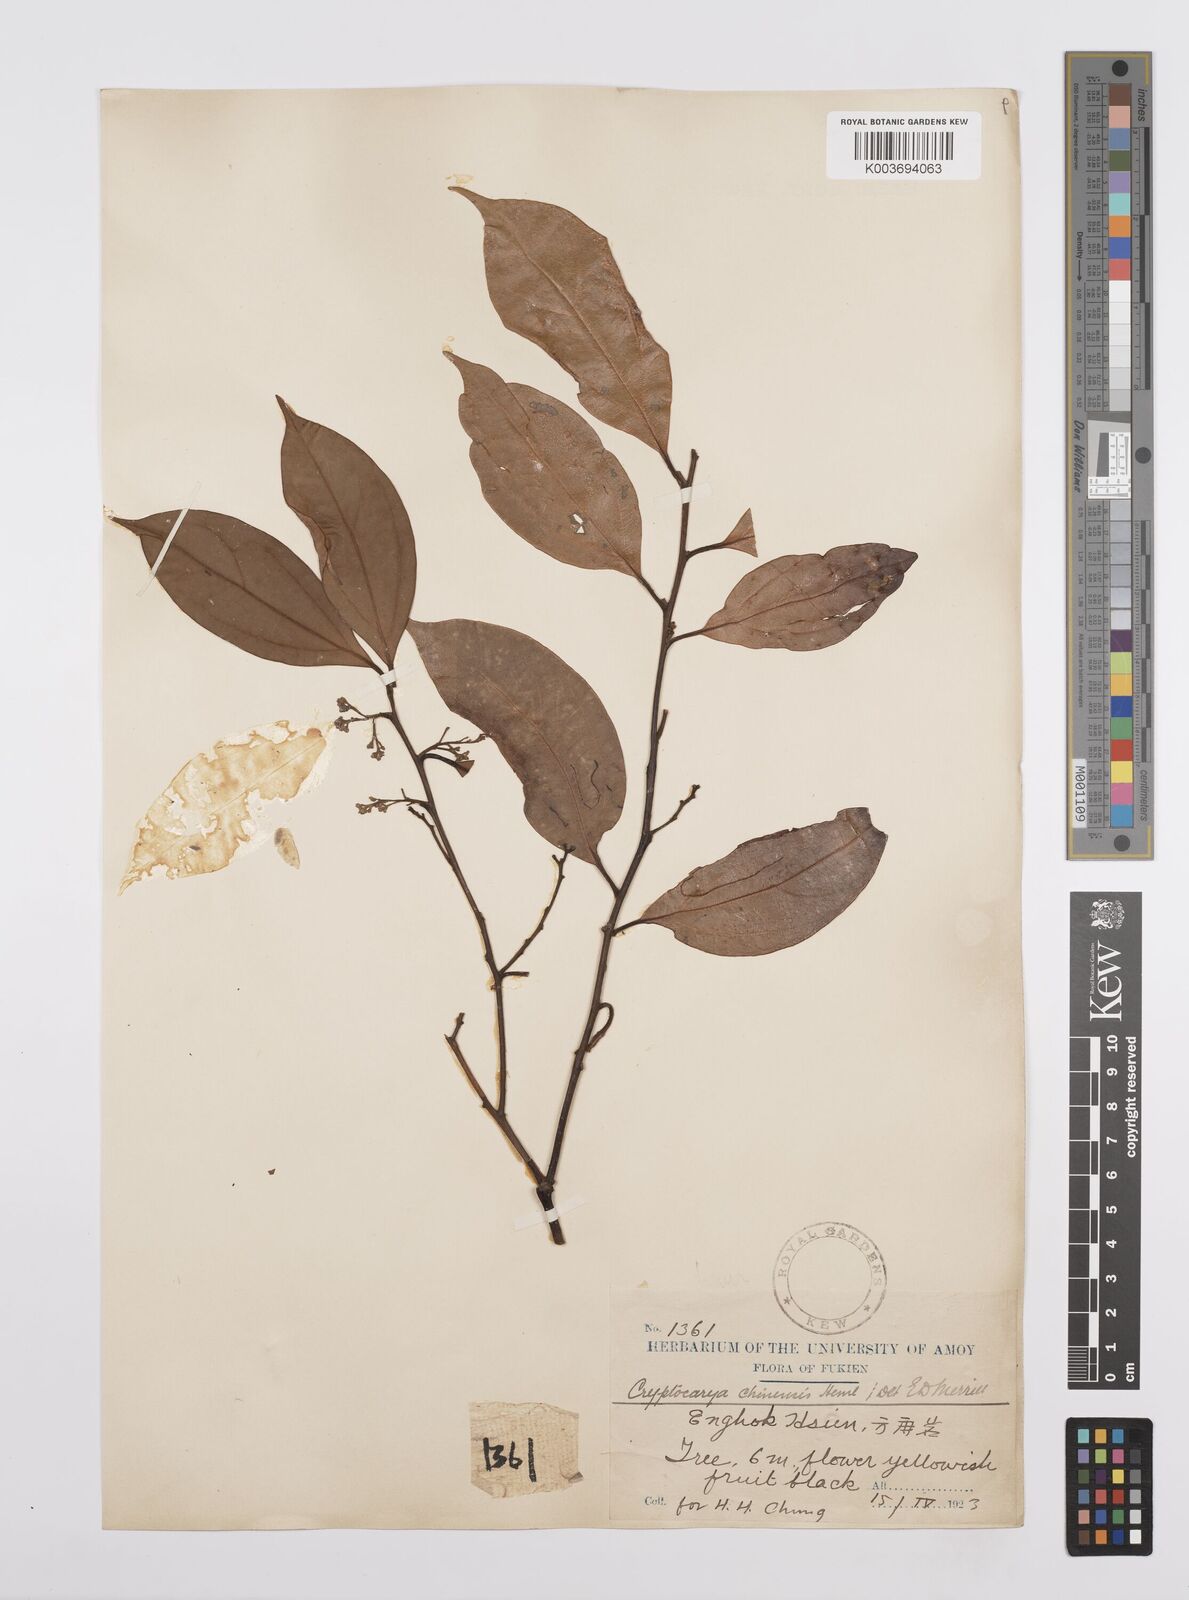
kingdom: Plantae
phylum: Tracheophyta
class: Magnoliopsida
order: Laurales
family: Lauraceae
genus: Cryptocarya
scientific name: Cryptocarya chinensis
